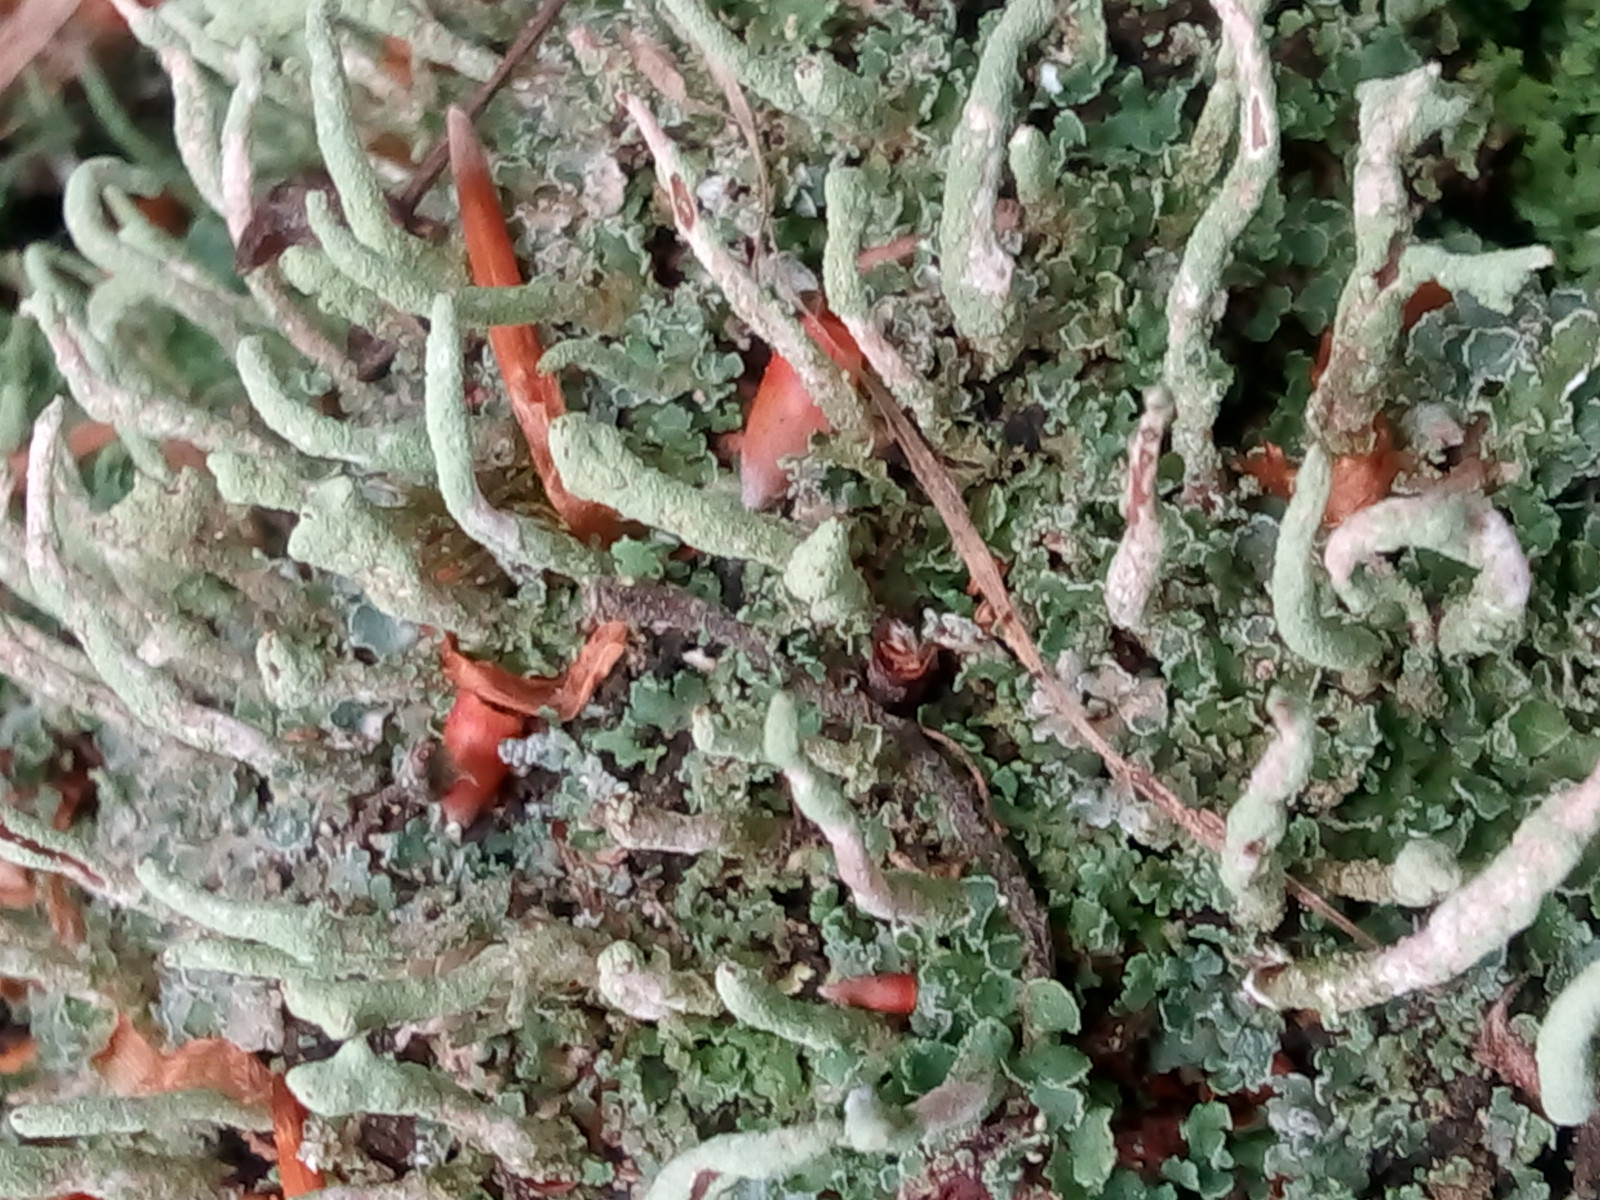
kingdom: Fungi
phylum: Ascomycota
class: Lecanoromycetes
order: Lecanorales
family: Cladoniaceae
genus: Cladonia
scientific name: Cladonia coniocraea
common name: træfods-bægerlav
